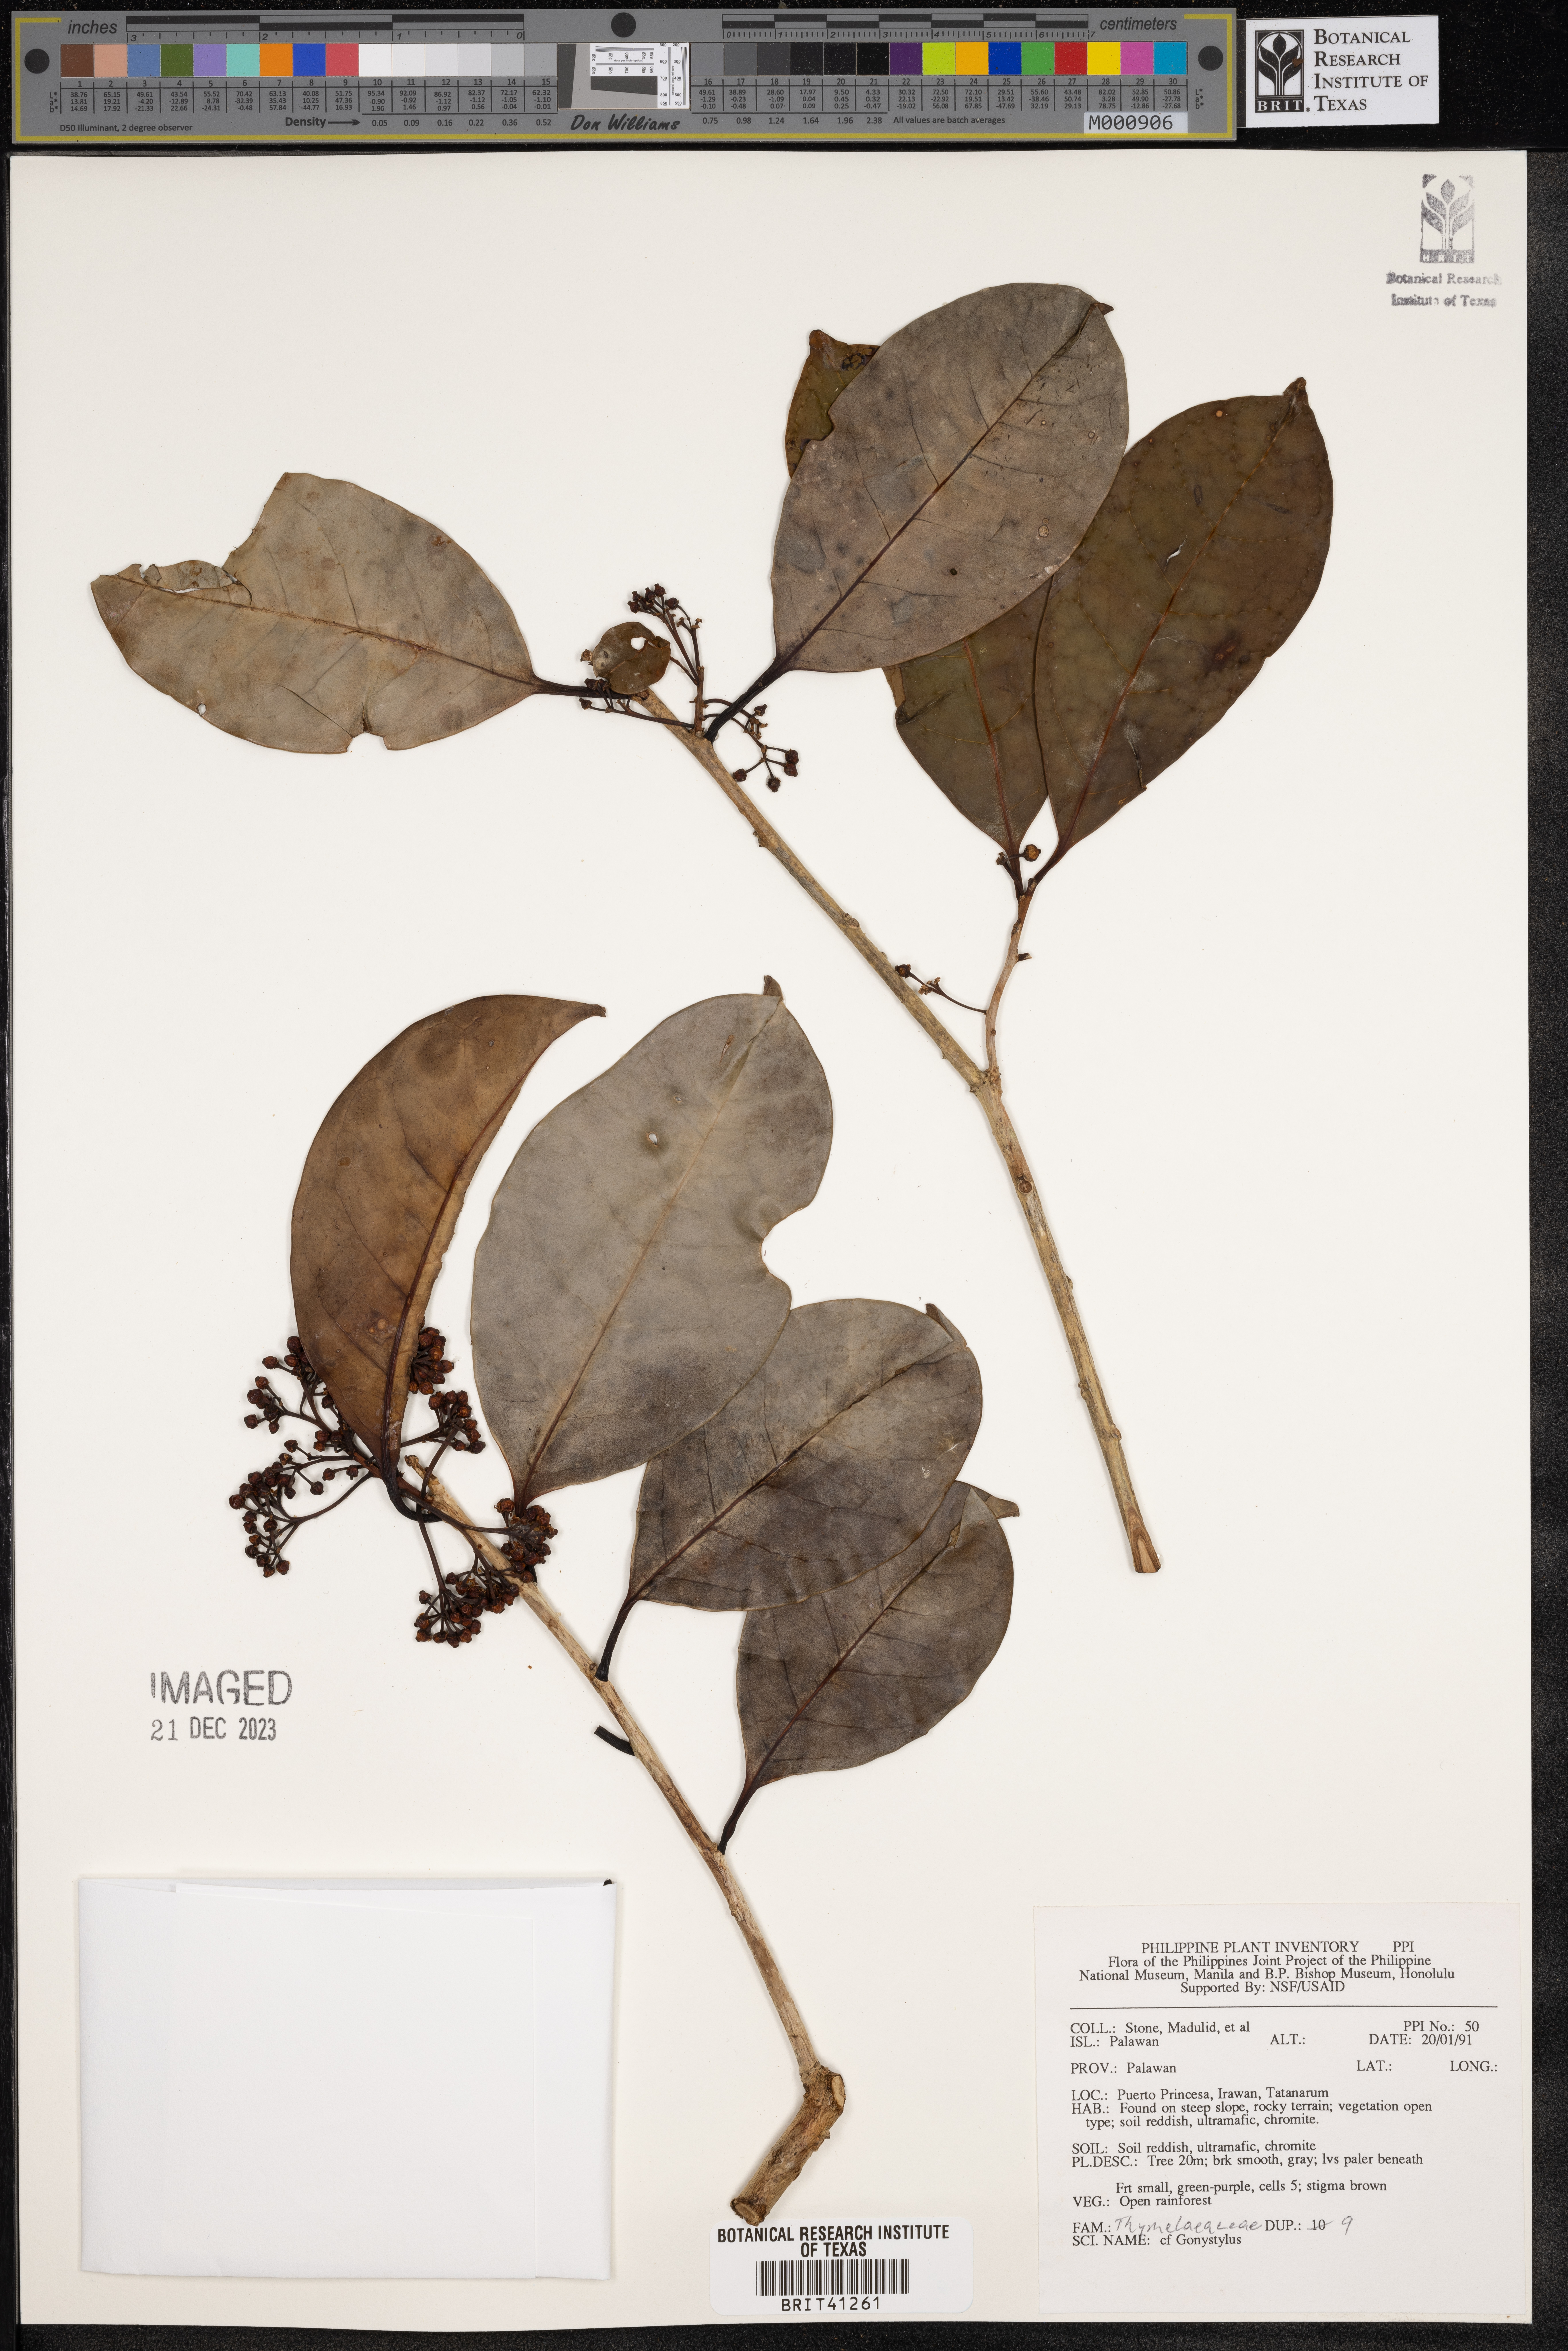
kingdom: Plantae
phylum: Tracheophyta
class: Magnoliopsida
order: Malvales
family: Thymelaeaceae
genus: Gonystylus
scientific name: Gonystylus
